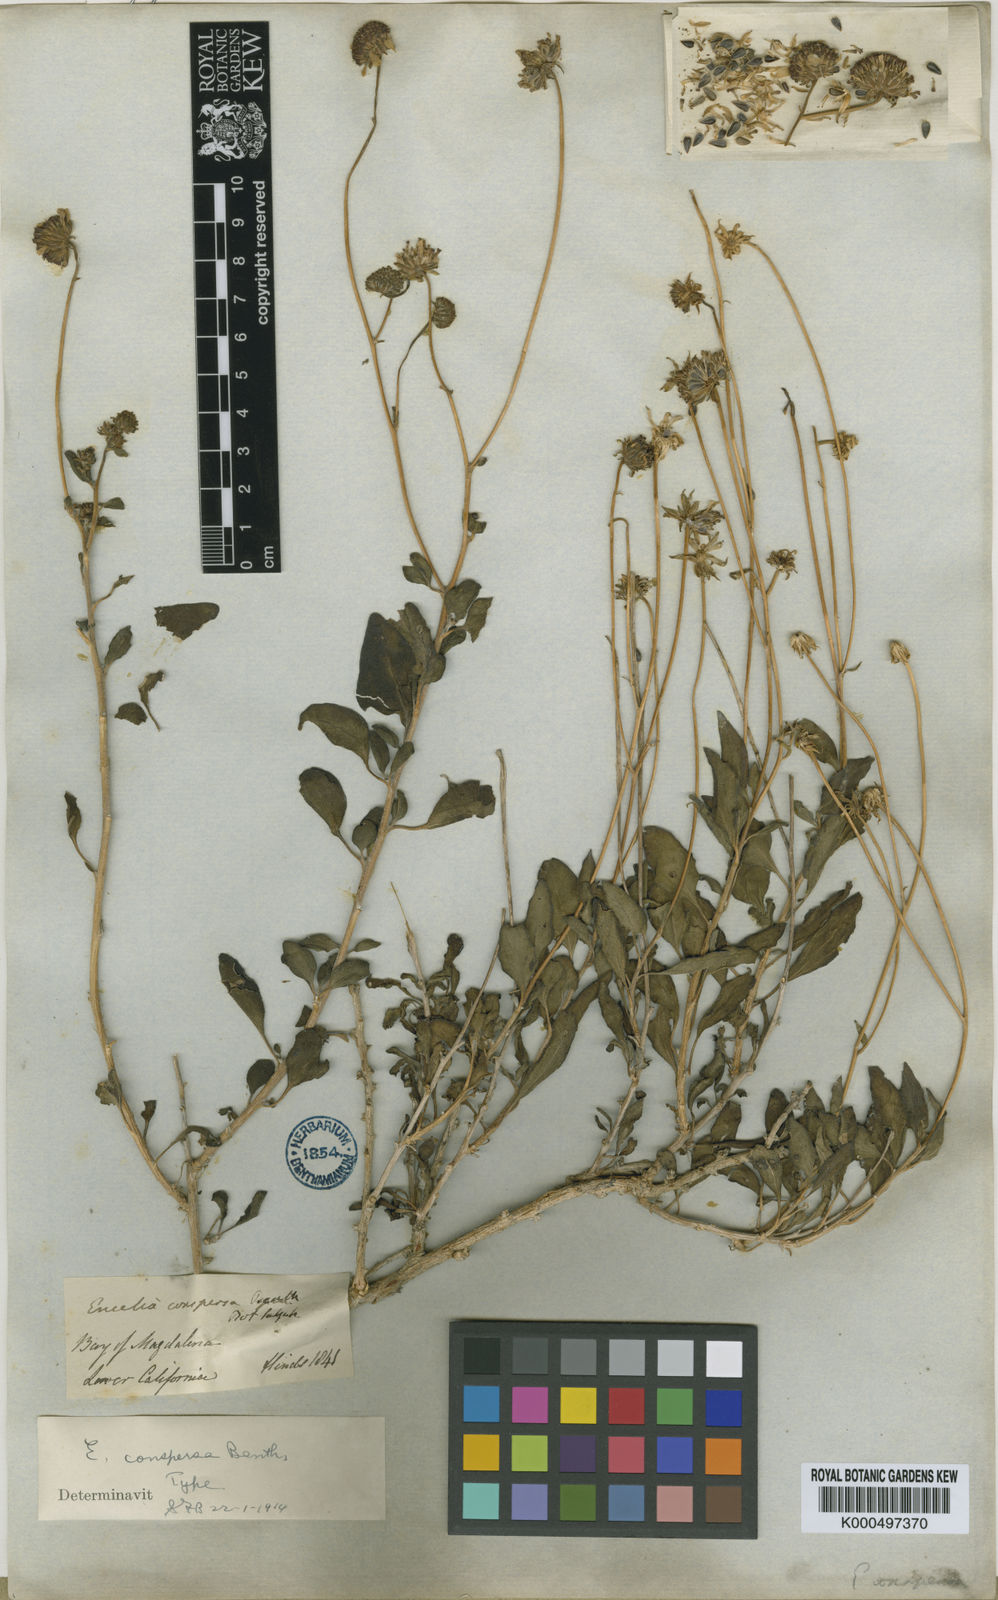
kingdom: Plantae
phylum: Tracheophyta
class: Magnoliopsida
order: Asterales
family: Asteraceae
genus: Encelia
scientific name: Encelia conspersa
